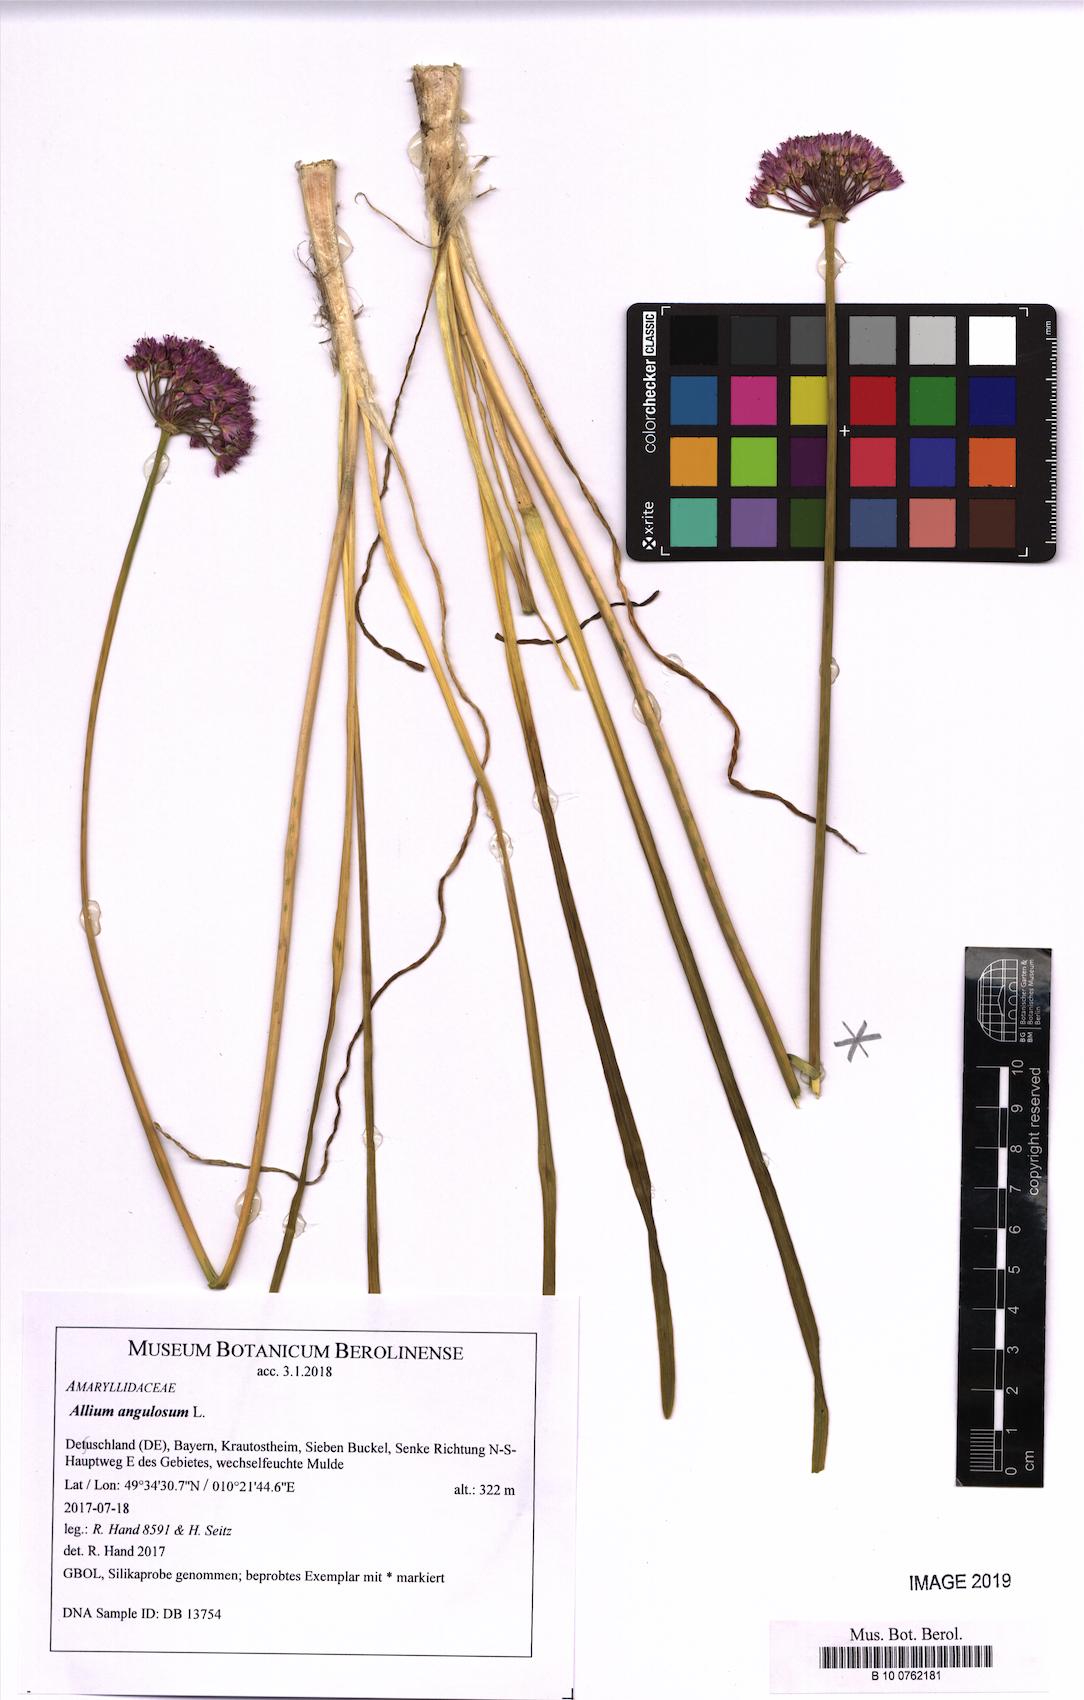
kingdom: Plantae
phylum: Tracheophyta
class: Liliopsida
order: Asparagales
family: Amaryllidaceae
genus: Allium
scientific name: Allium angulosum
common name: Mouse garlic
